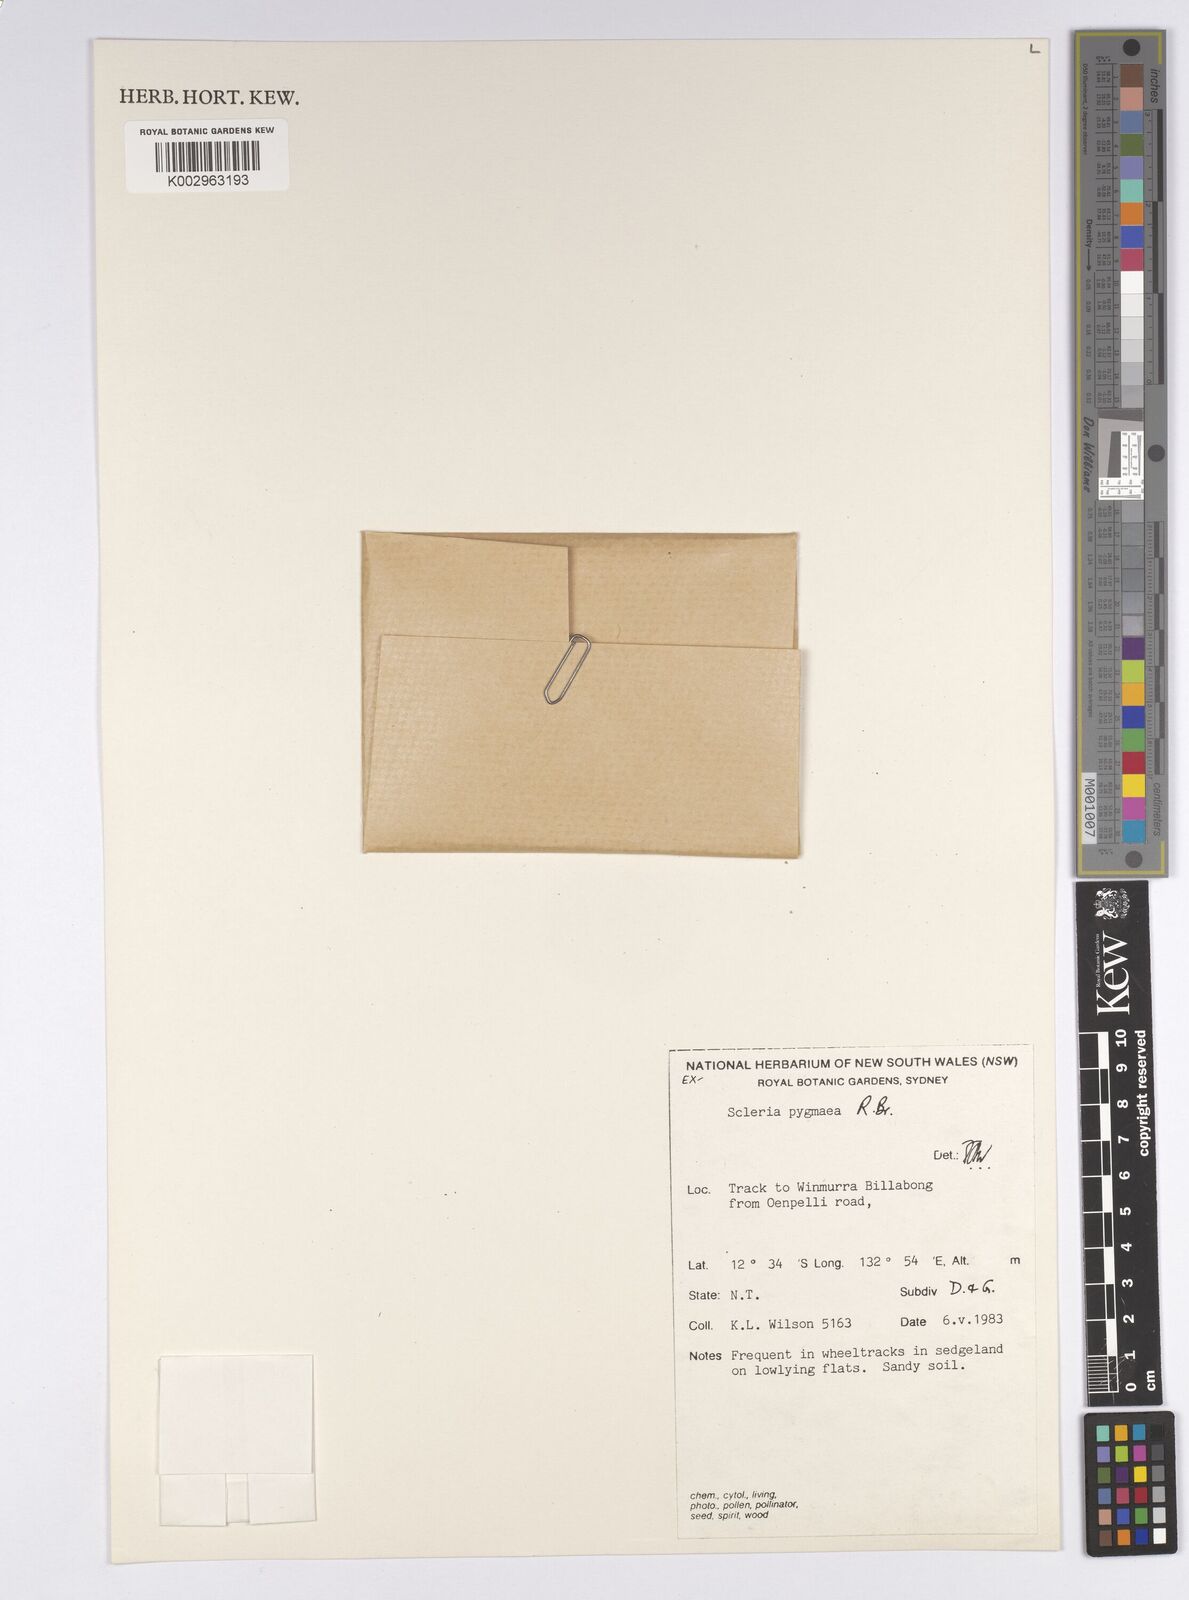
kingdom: Plantae
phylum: Tracheophyta
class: Liliopsida
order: Poales
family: Cyperaceae
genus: Diplacrum
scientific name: Diplacrum pygmaeum
